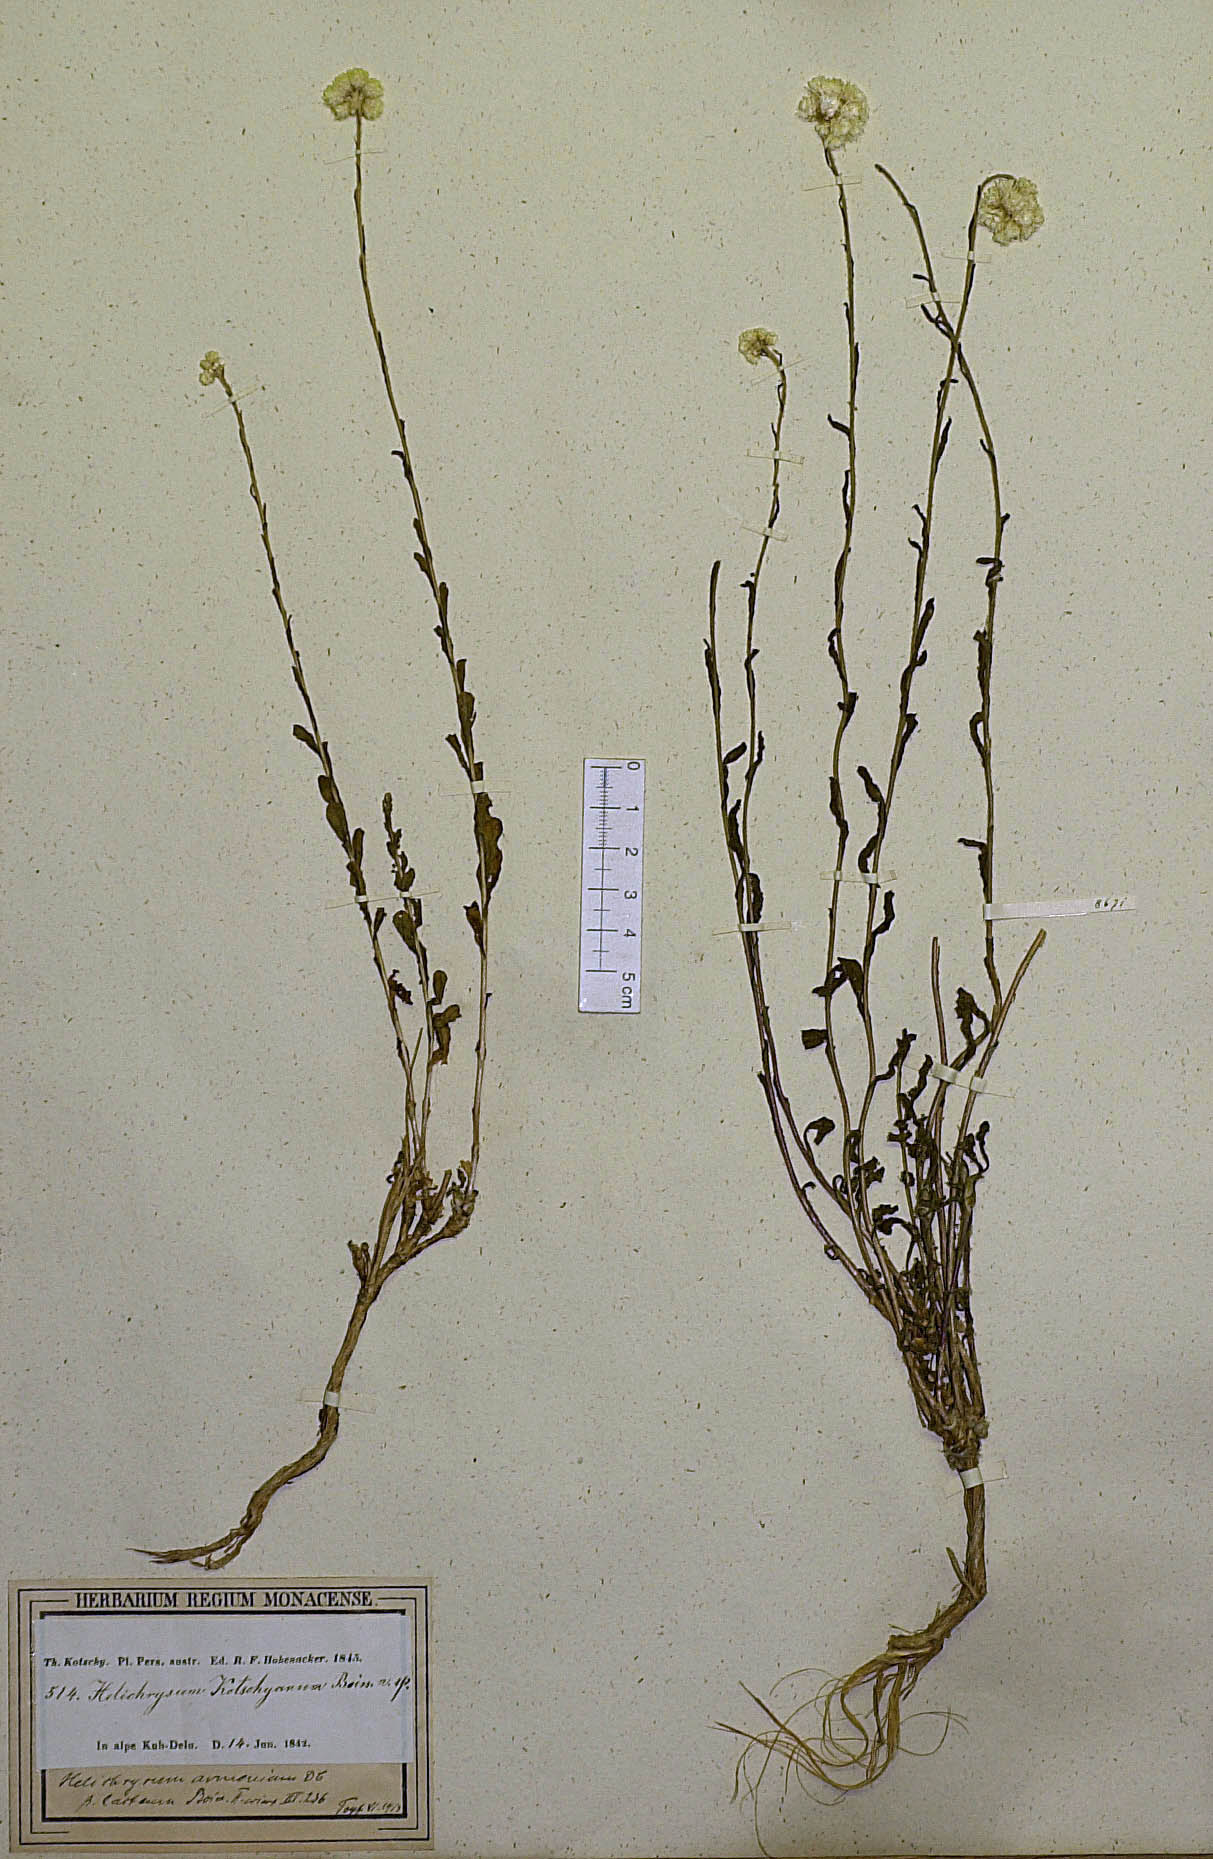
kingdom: Plantae
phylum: Tracheophyta
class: Magnoliopsida
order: Asterales
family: Asteraceae
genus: Helichrysum
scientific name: Helichrysum oligocephalum
